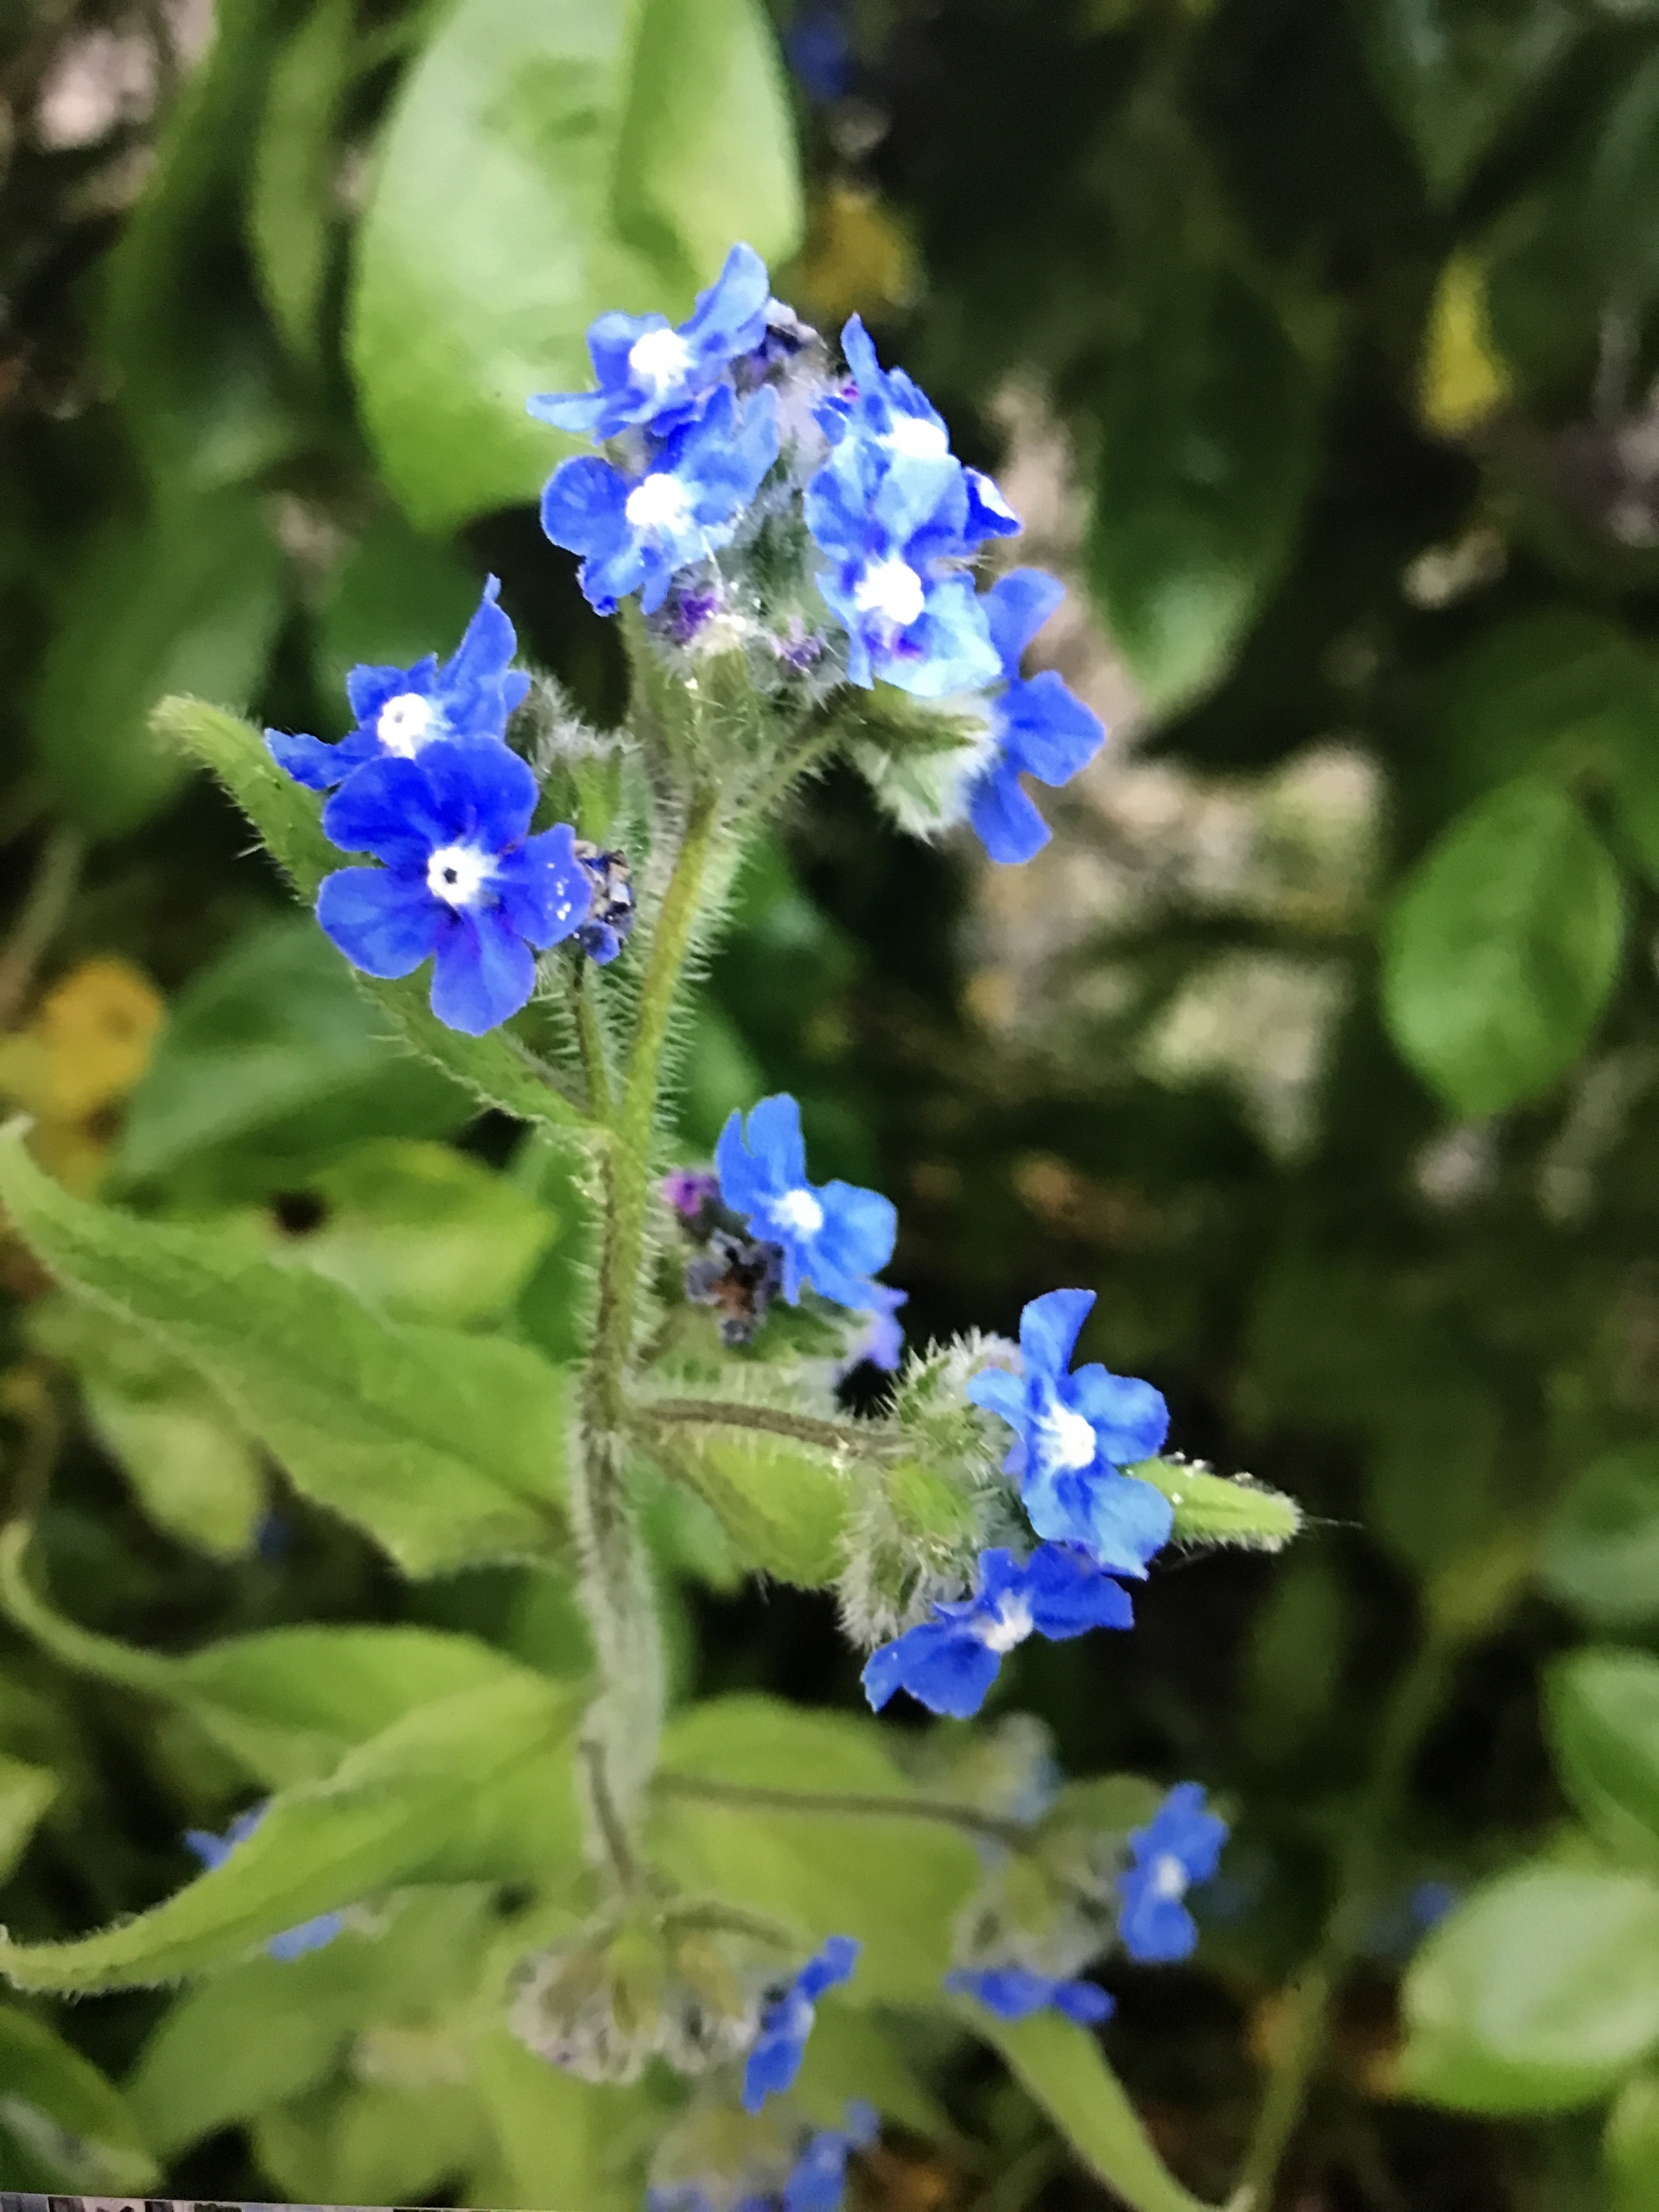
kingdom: Plantae
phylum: Tracheophyta
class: Magnoliopsida
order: Boraginales
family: Boraginaceae
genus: Pentaglottis
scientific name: Pentaglottis sempervirens
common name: Femtunge
